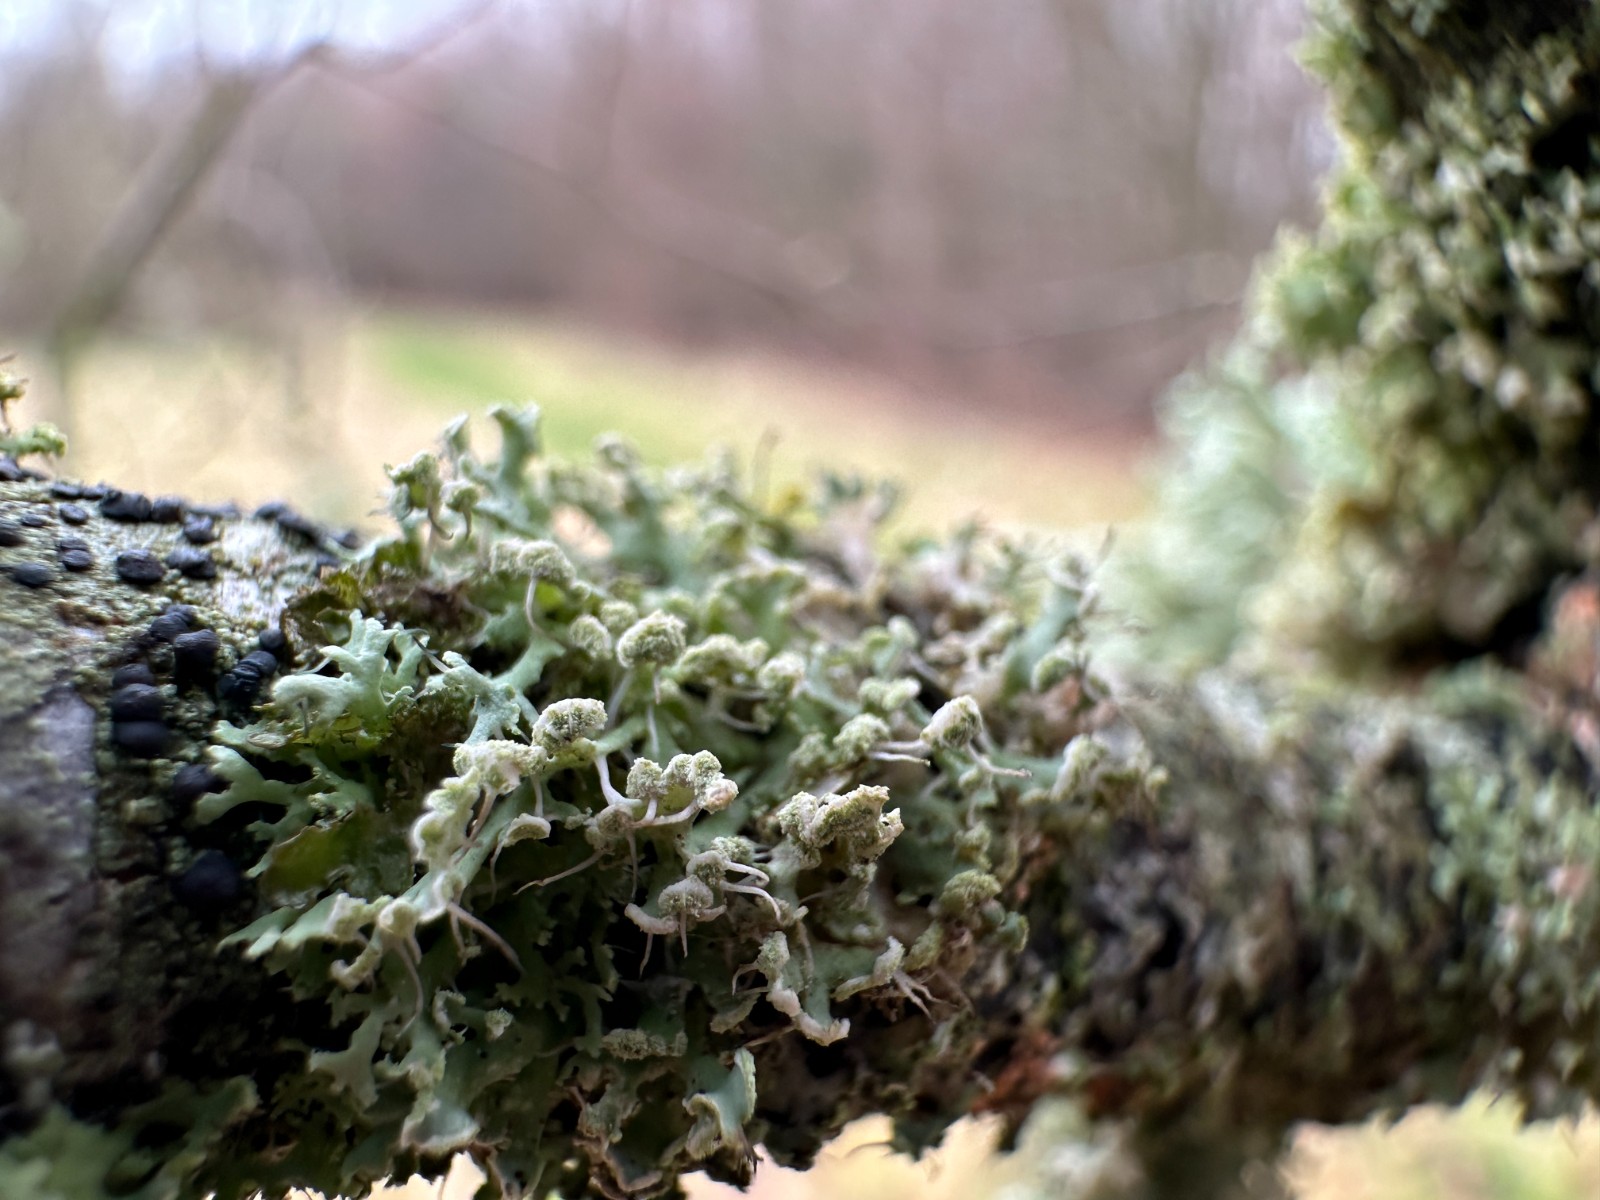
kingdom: Fungi
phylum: Ascomycota
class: Lecanoromycetes
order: Caliciales
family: Physciaceae
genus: Physcia
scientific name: Physcia tenella
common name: spæd rosetlav
